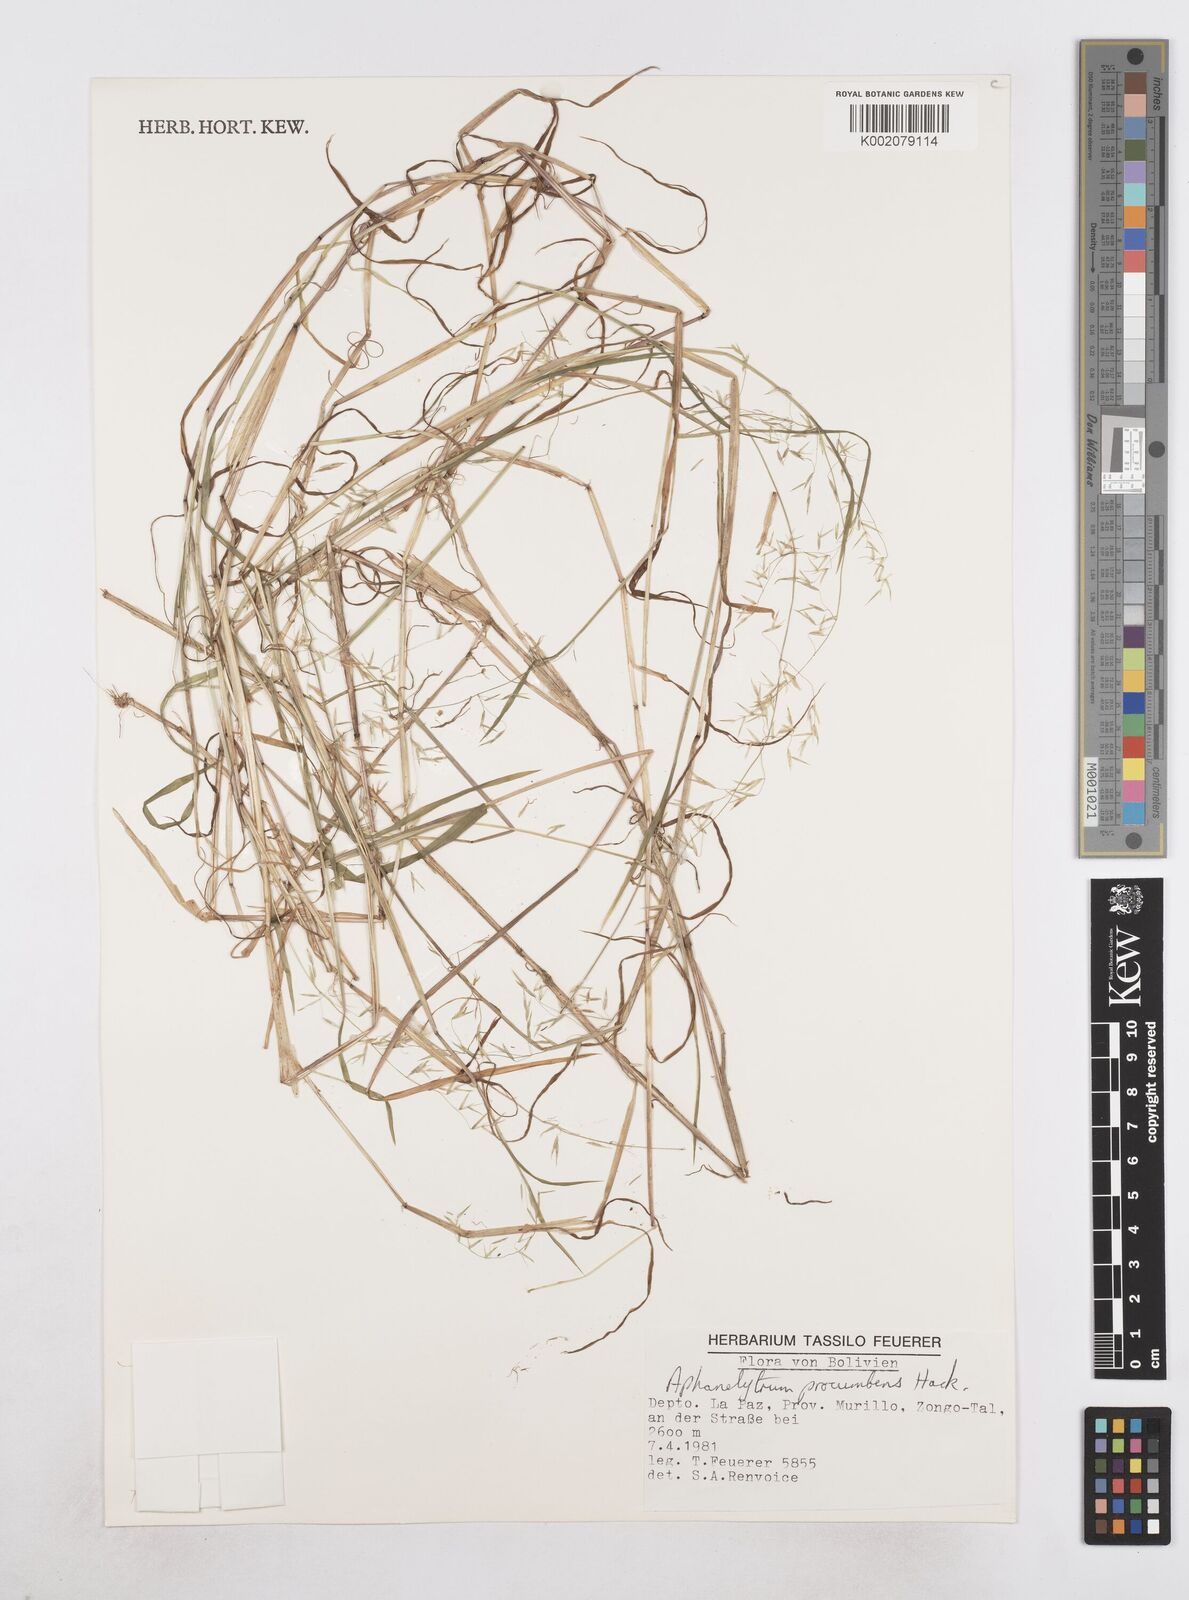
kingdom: Plantae
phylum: Tracheophyta
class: Liliopsida
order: Poales
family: Poaceae
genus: Poa
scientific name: Poa hitchcockiana
